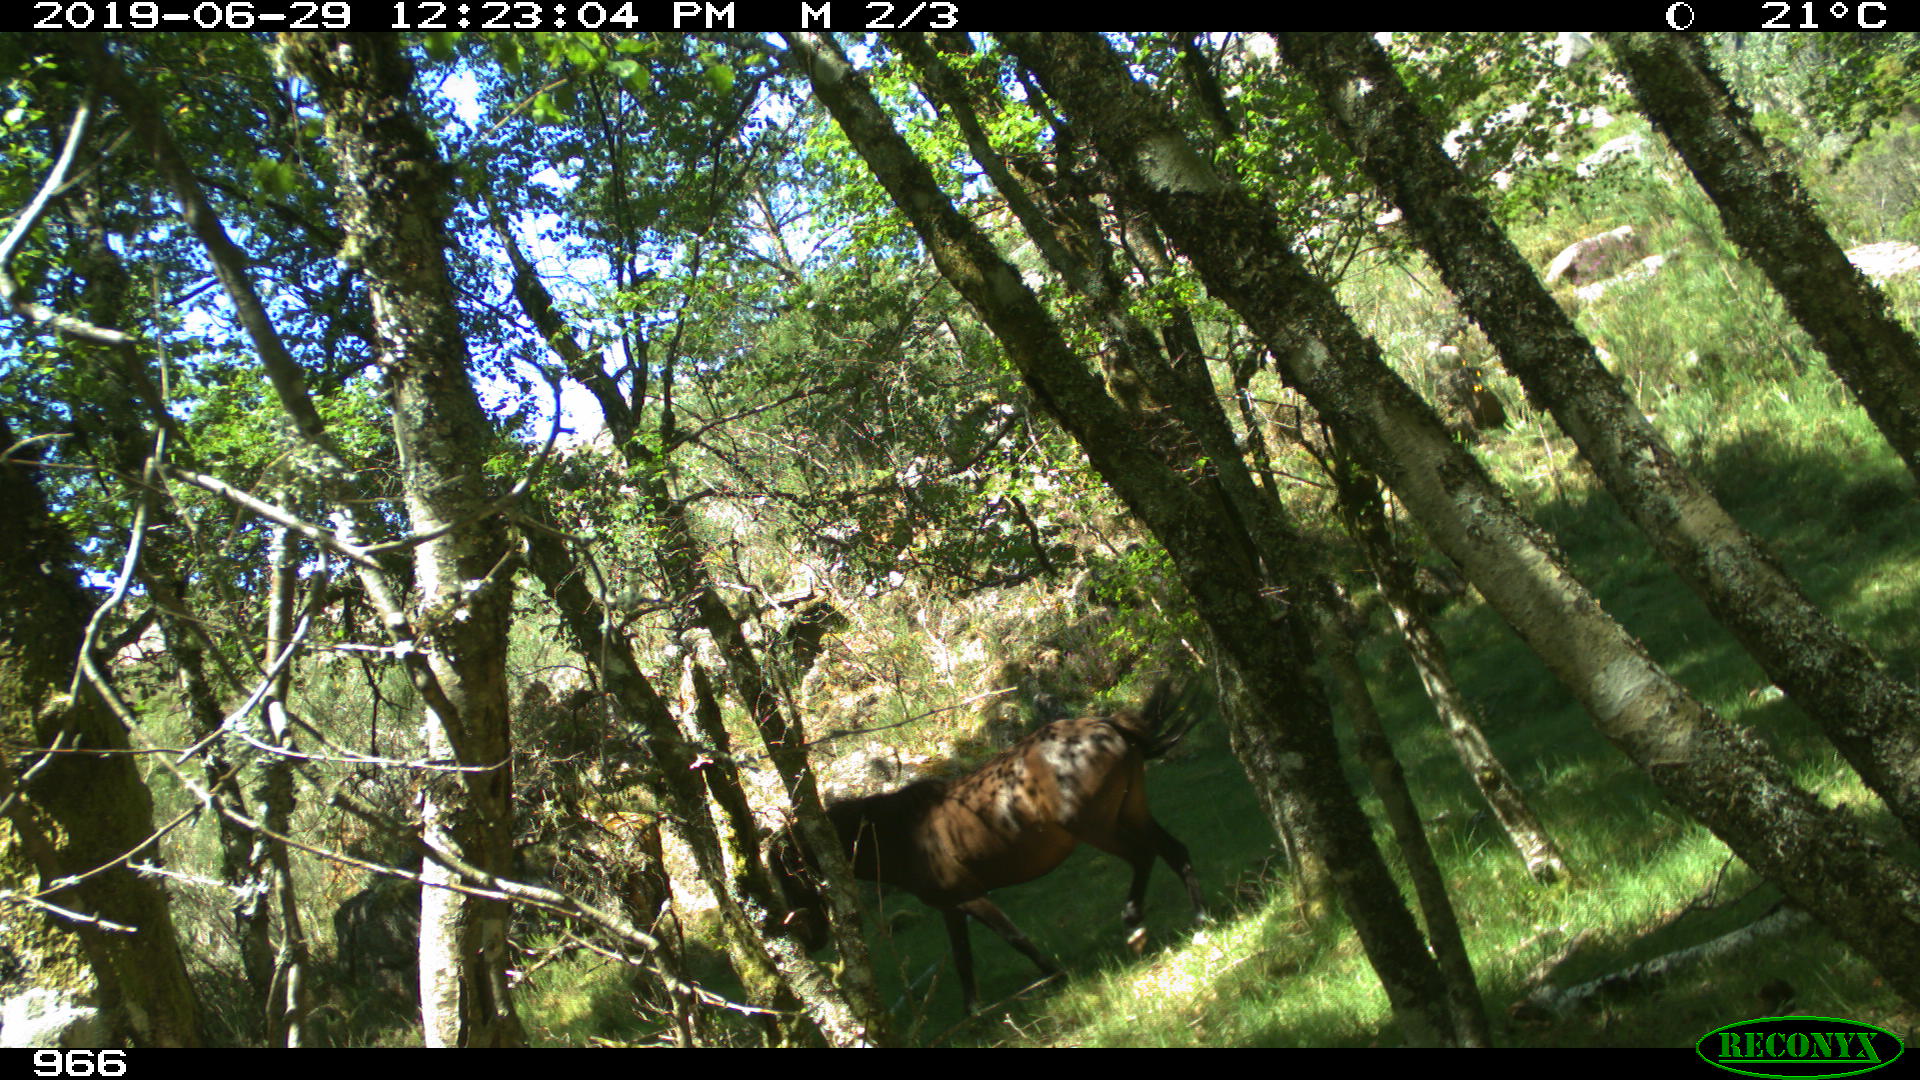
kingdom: Animalia
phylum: Chordata
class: Mammalia
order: Perissodactyla
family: Equidae
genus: Equus
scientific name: Equus caballus
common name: Horse
